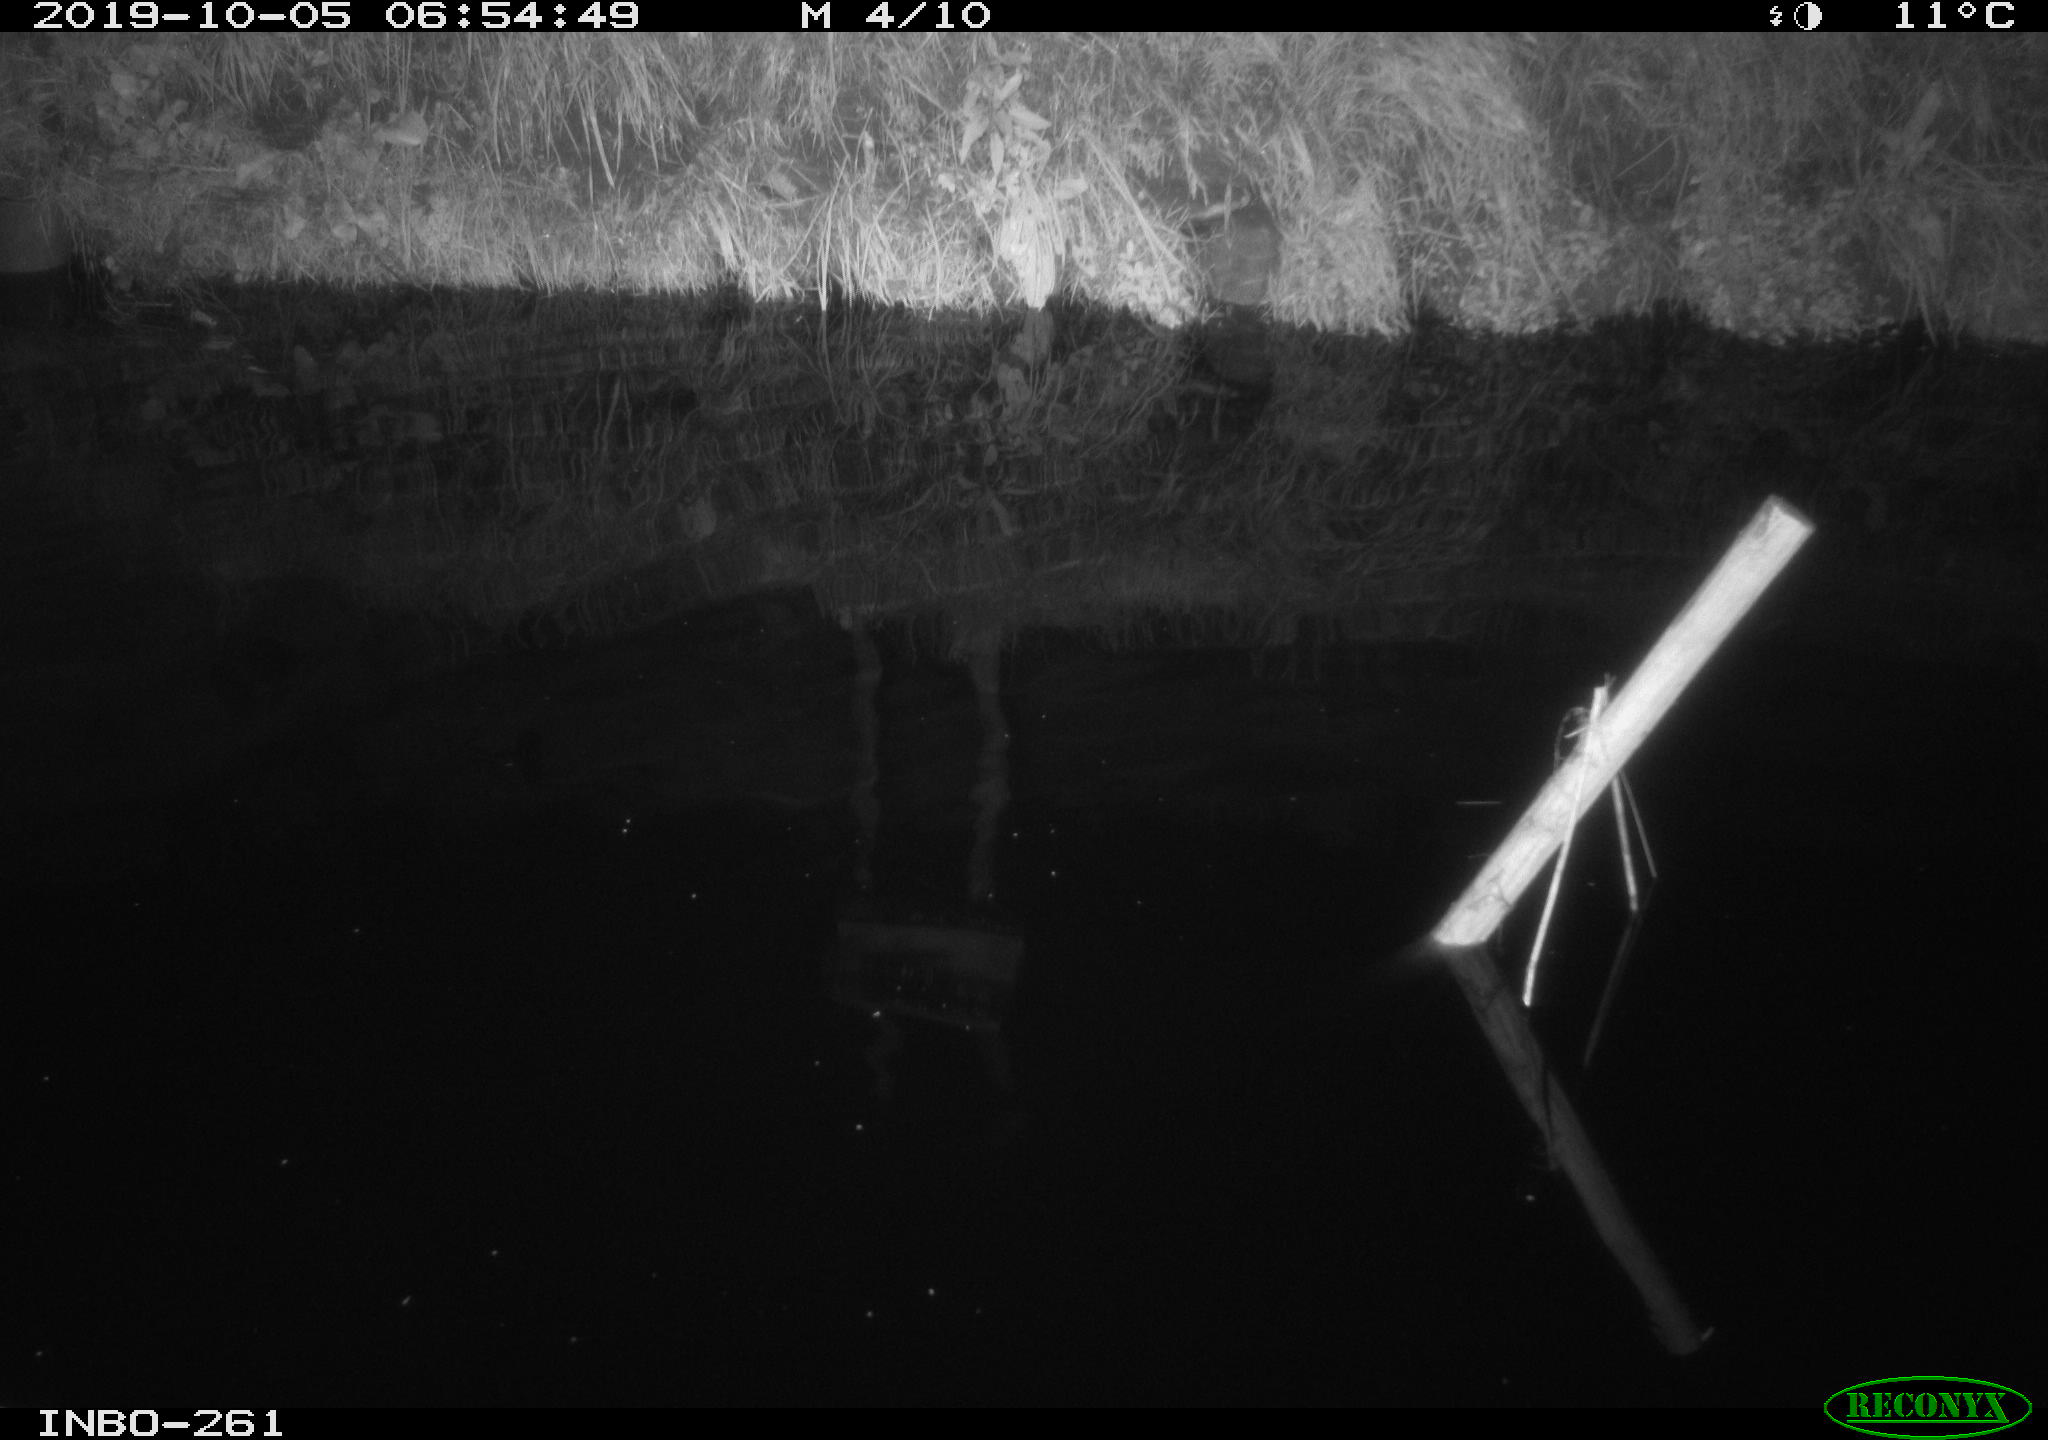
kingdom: Animalia
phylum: Chordata
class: Aves
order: Anseriformes
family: Anatidae
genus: Anas
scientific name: Anas platyrhynchos
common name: Mallard
